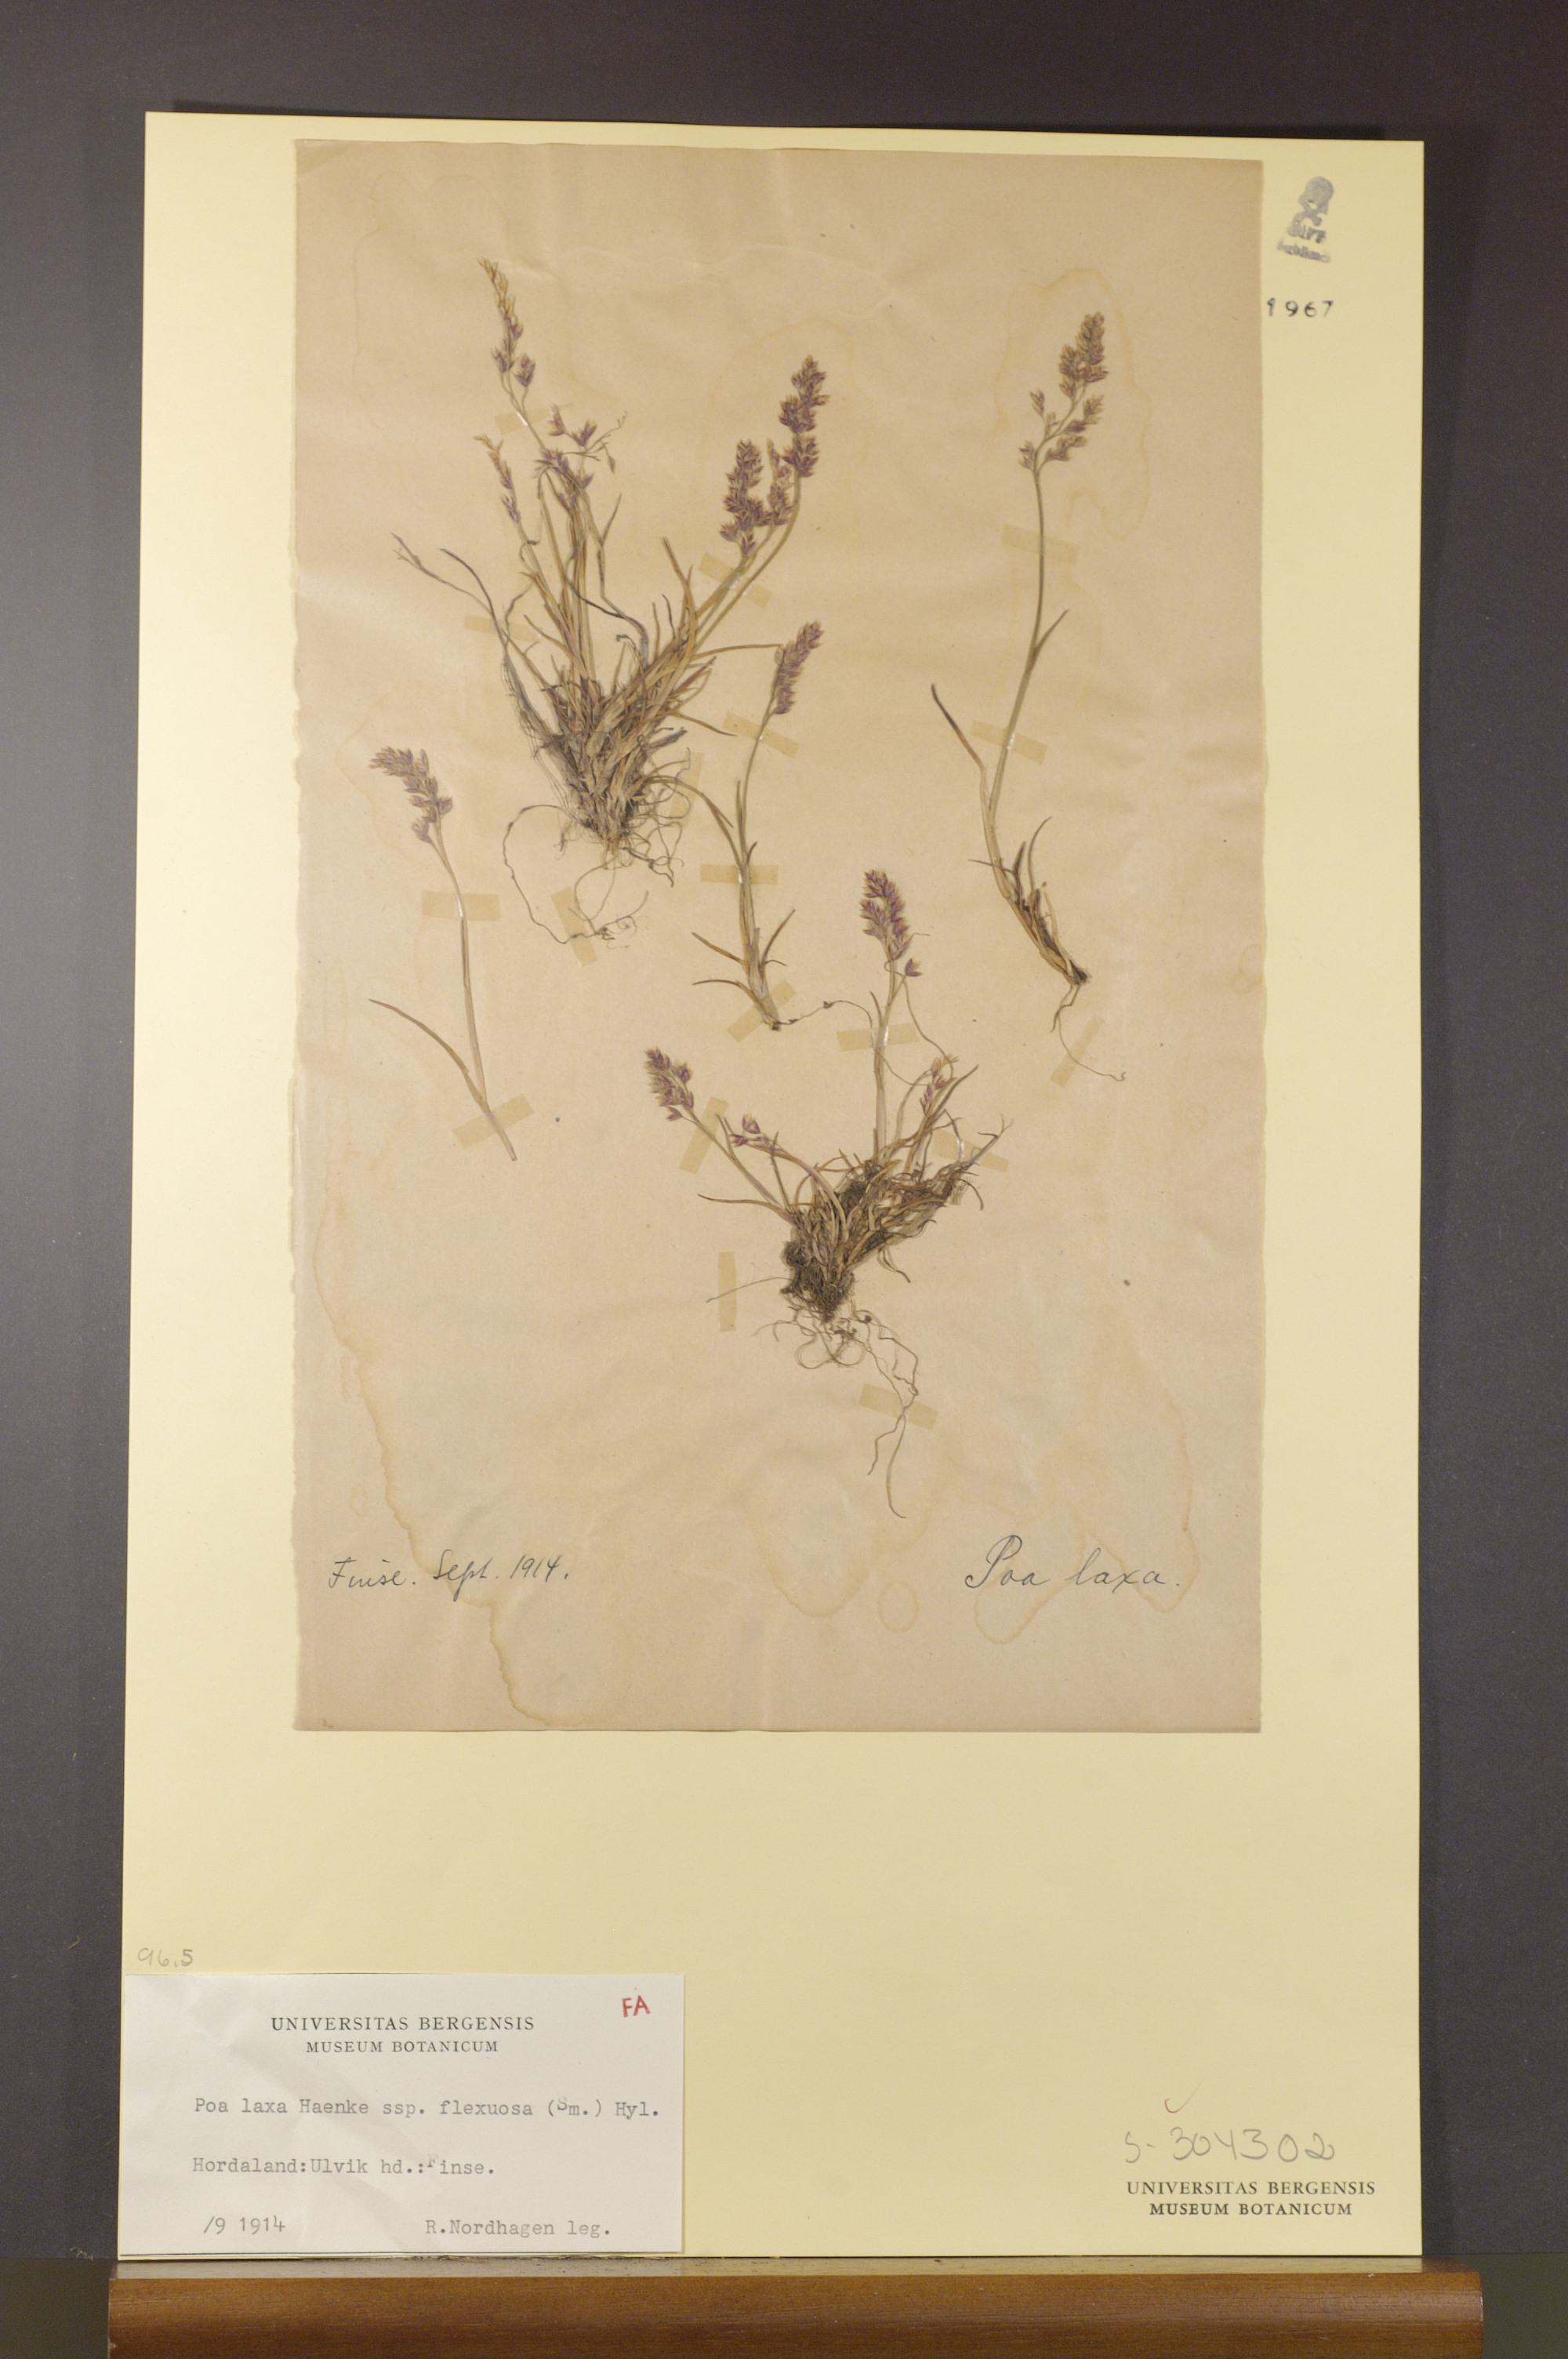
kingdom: Plantae
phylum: Tracheophyta
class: Liliopsida
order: Poales
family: Poaceae
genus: Poa
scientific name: Poa flexuosa
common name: Wavy meadow-grass
